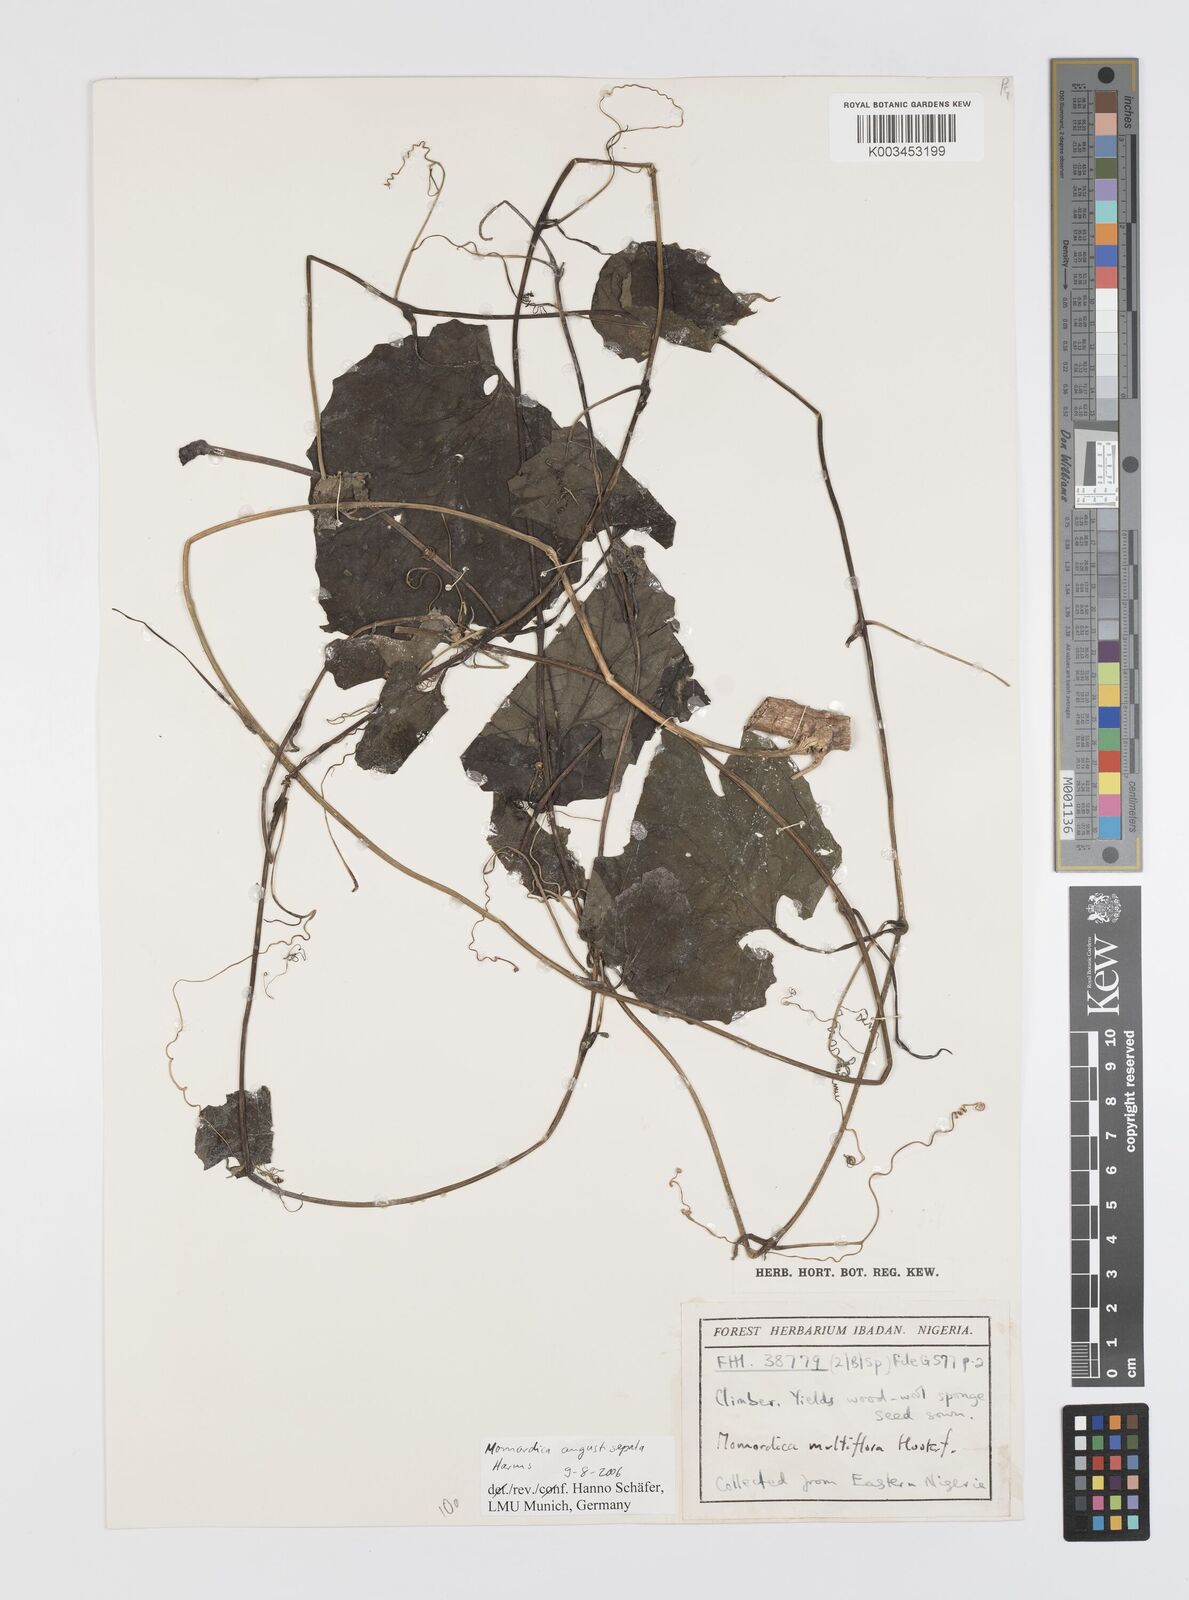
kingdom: Plantae
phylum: Tracheophyta
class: Magnoliopsida
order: Cucurbitales
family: Cucurbitaceae
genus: Momordica
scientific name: Momordica angustisepala
